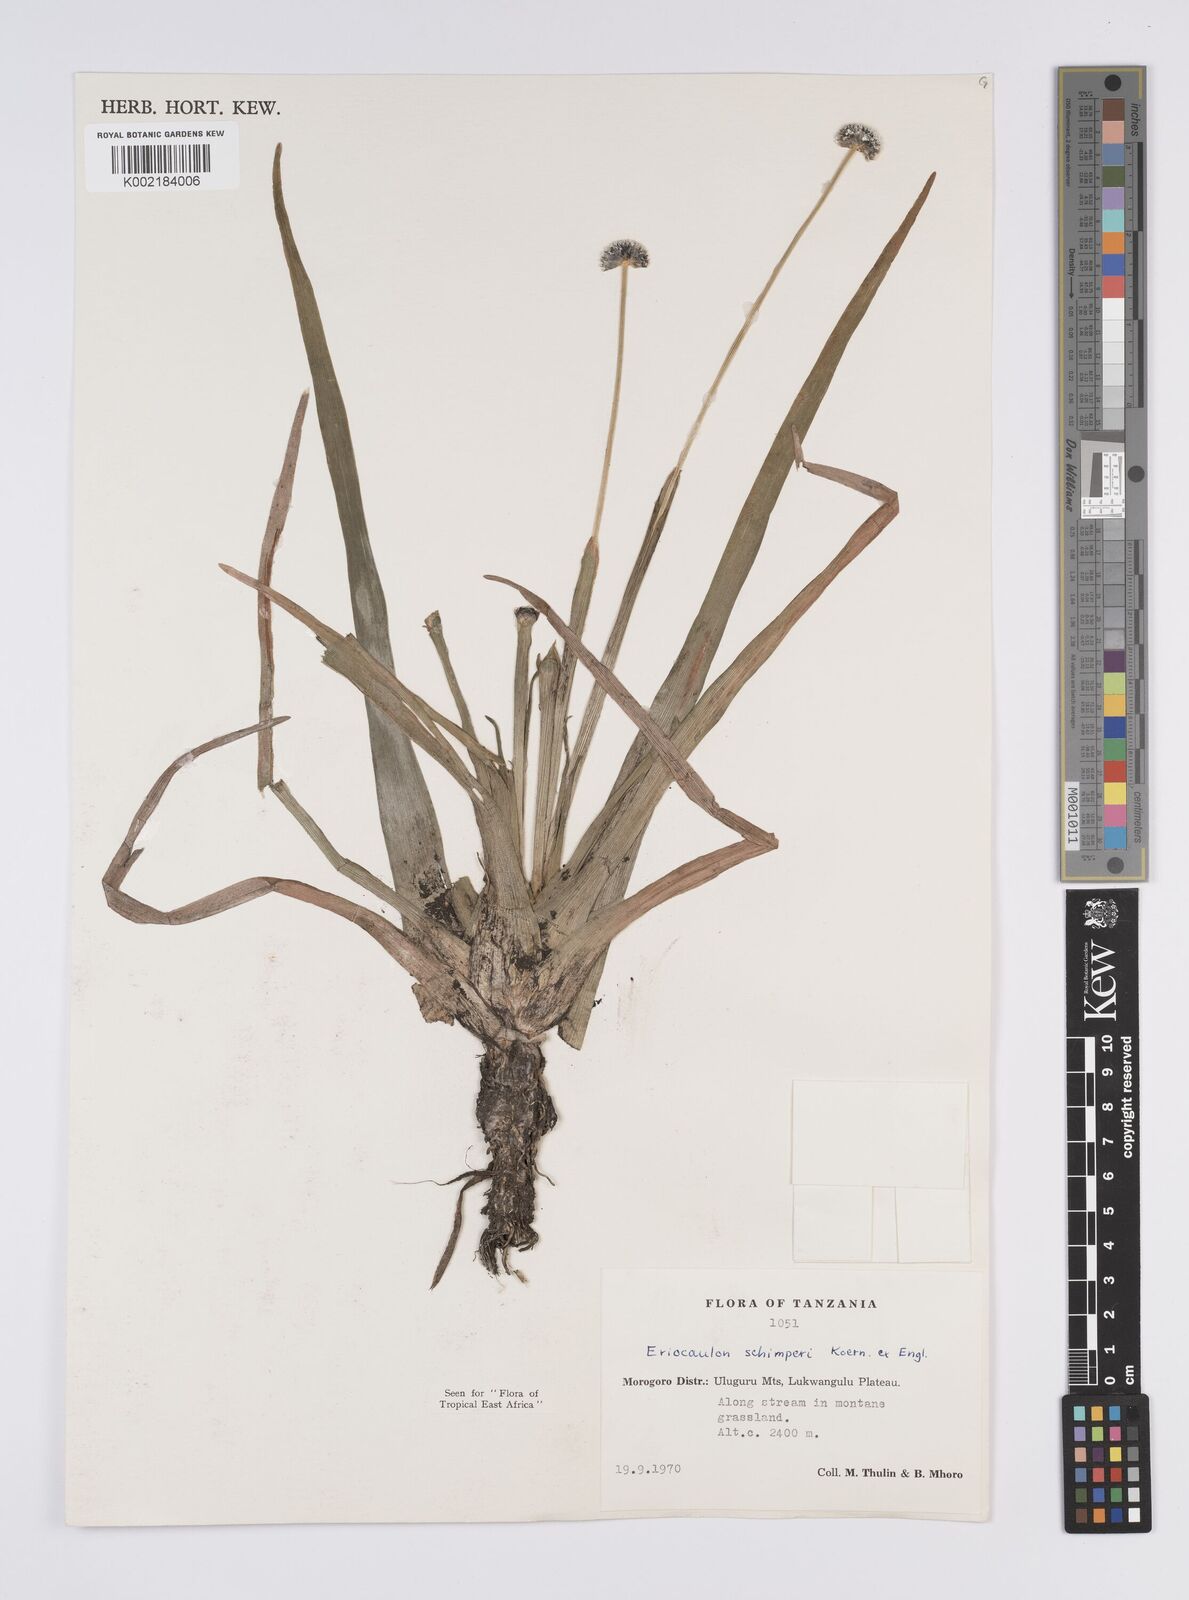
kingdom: Plantae
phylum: Tracheophyta
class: Liliopsida
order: Poales
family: Eriocaulaceae
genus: Eriocaulon
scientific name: Eriocaulon mesanthemoides
